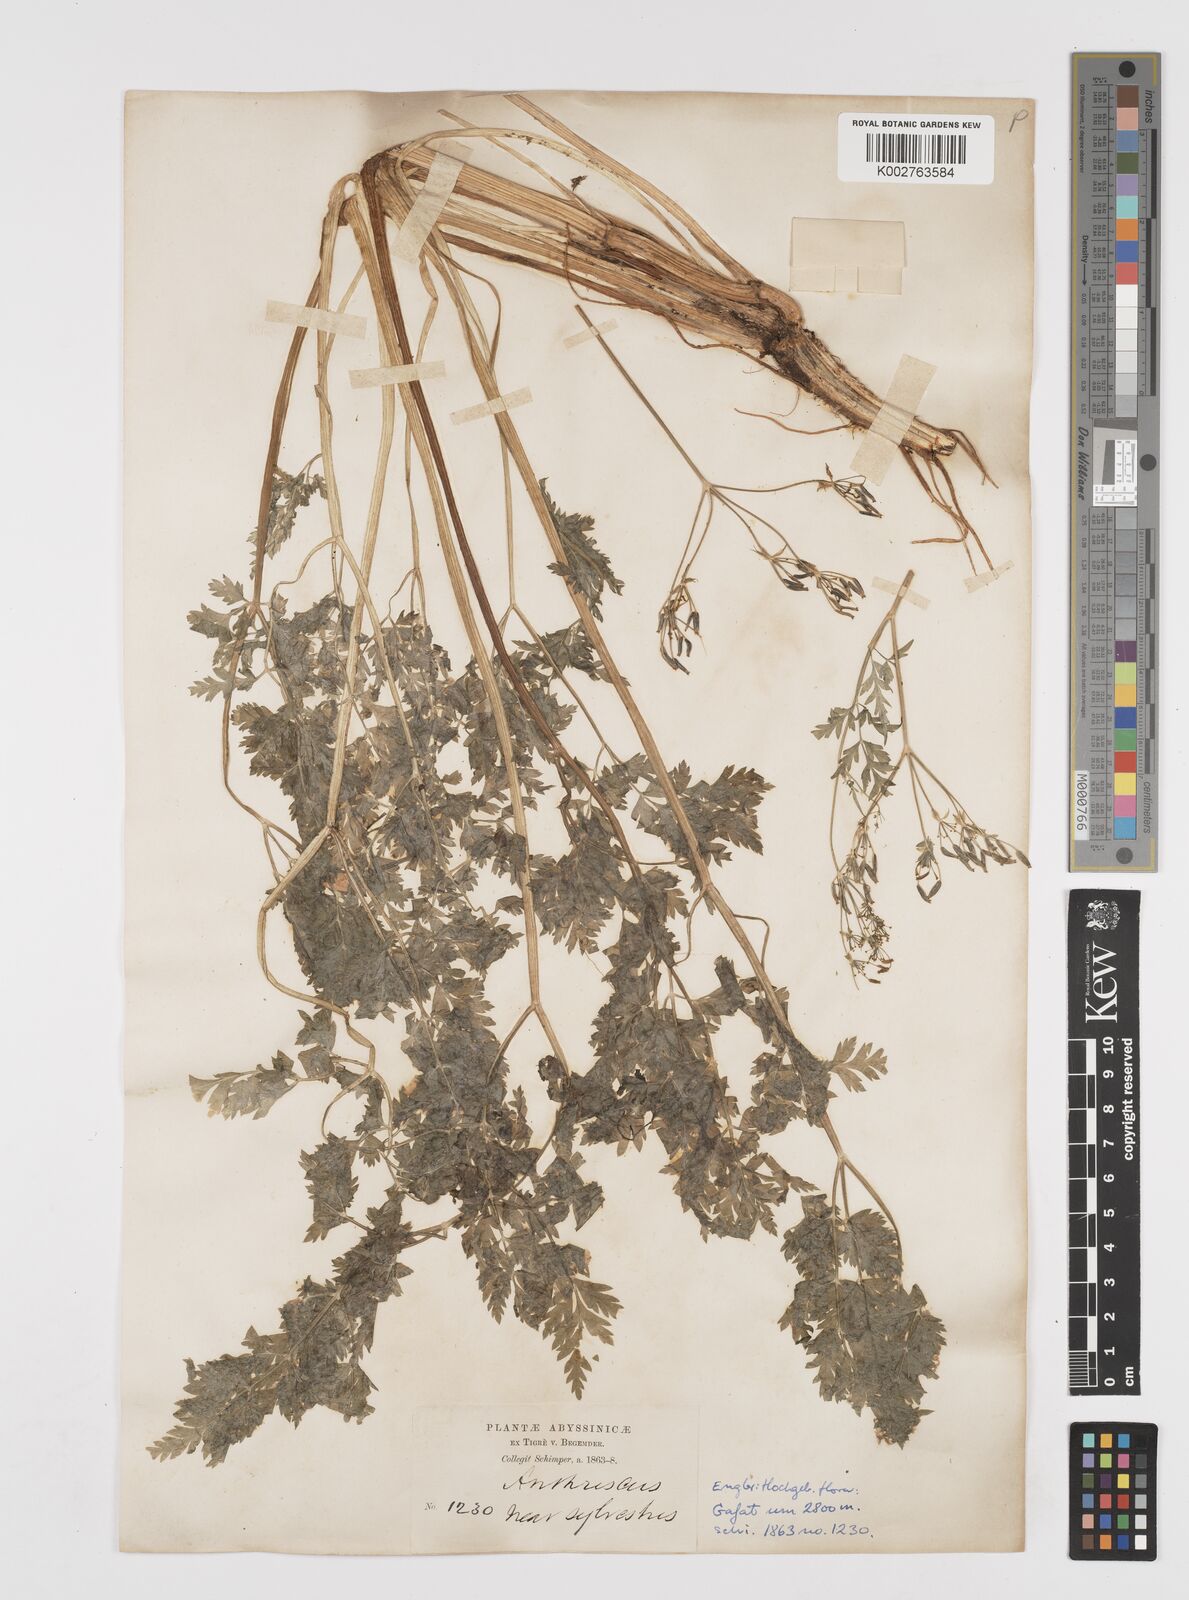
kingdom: Plantae
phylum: Tracheophyta
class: Magnoliopsida
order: Apiales
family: Apiaceae
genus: Anthriscus
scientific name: Anthriscus sylvestris
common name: Cow parsley
